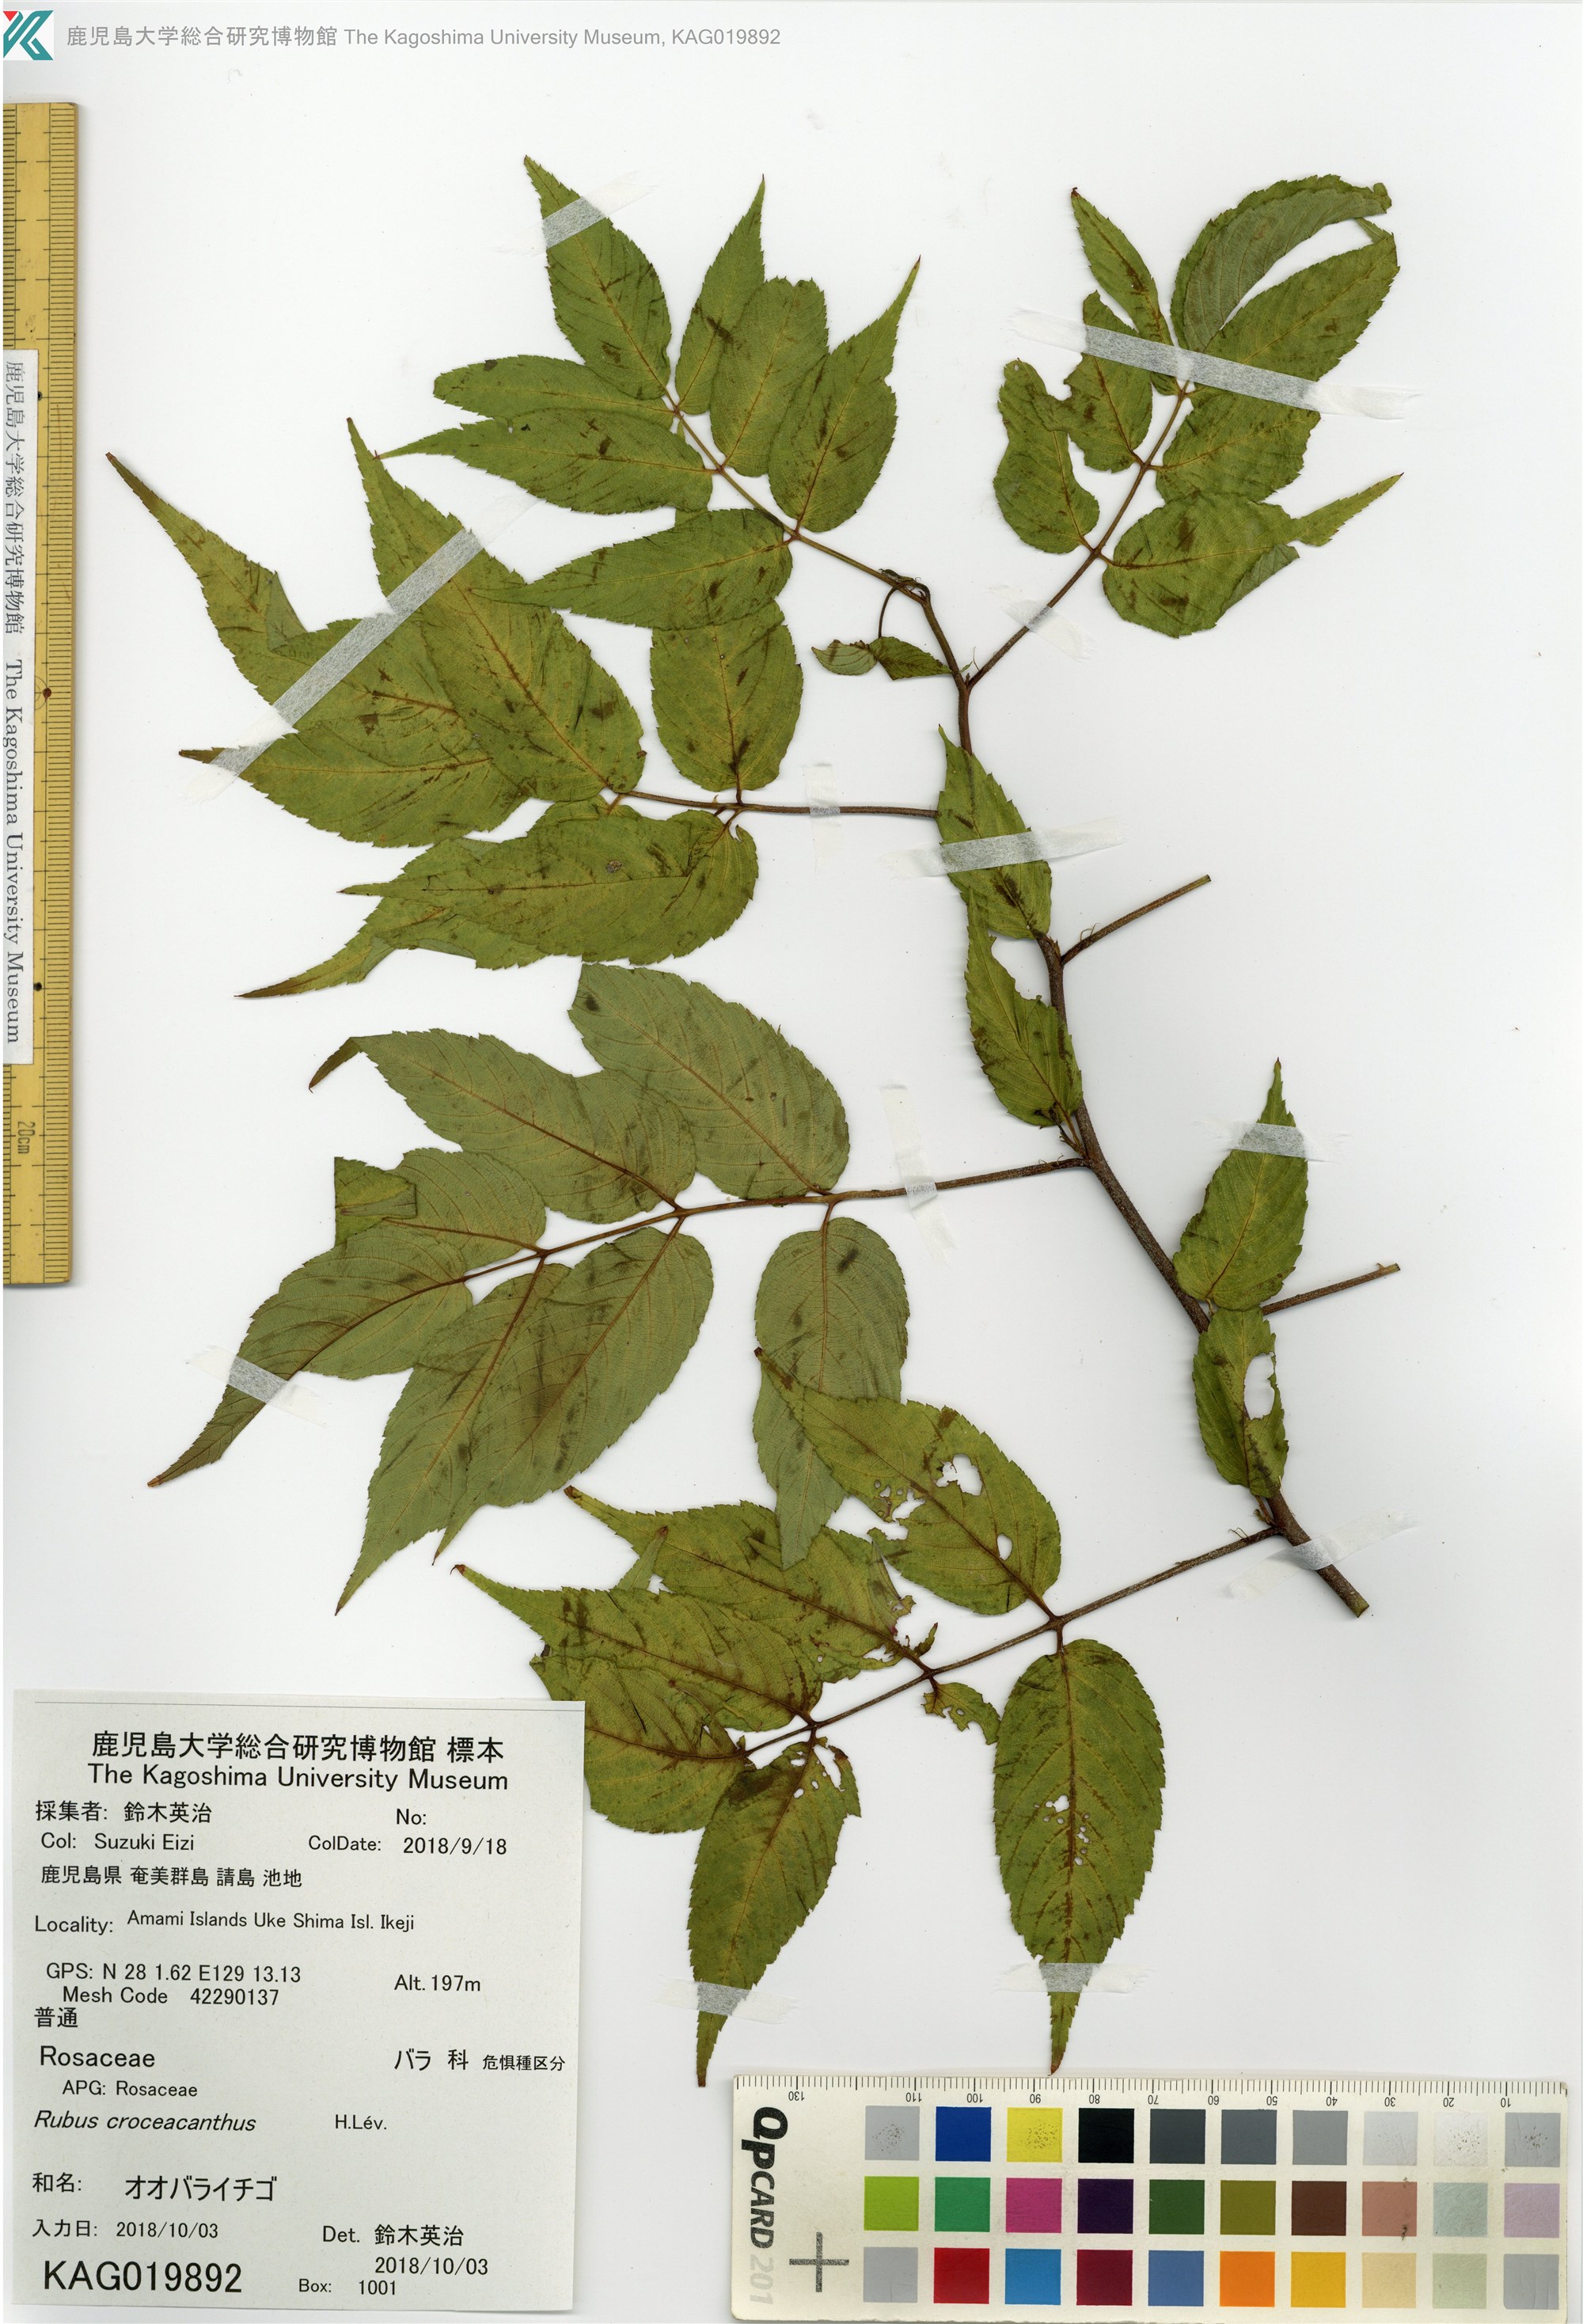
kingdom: Plantae
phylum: Tracheophyta
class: Magnoliopsida
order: Rosales
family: Rosaceae
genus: Rubus
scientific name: Rubus okinawensis
